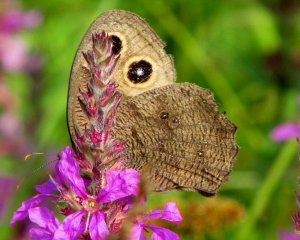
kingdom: Animalia
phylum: Arthropoda
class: Insecta
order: Lepidoptera
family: Nymphalidae
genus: Cercyonis
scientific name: Cercyonis pegala
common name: Common Wood-Nymph
